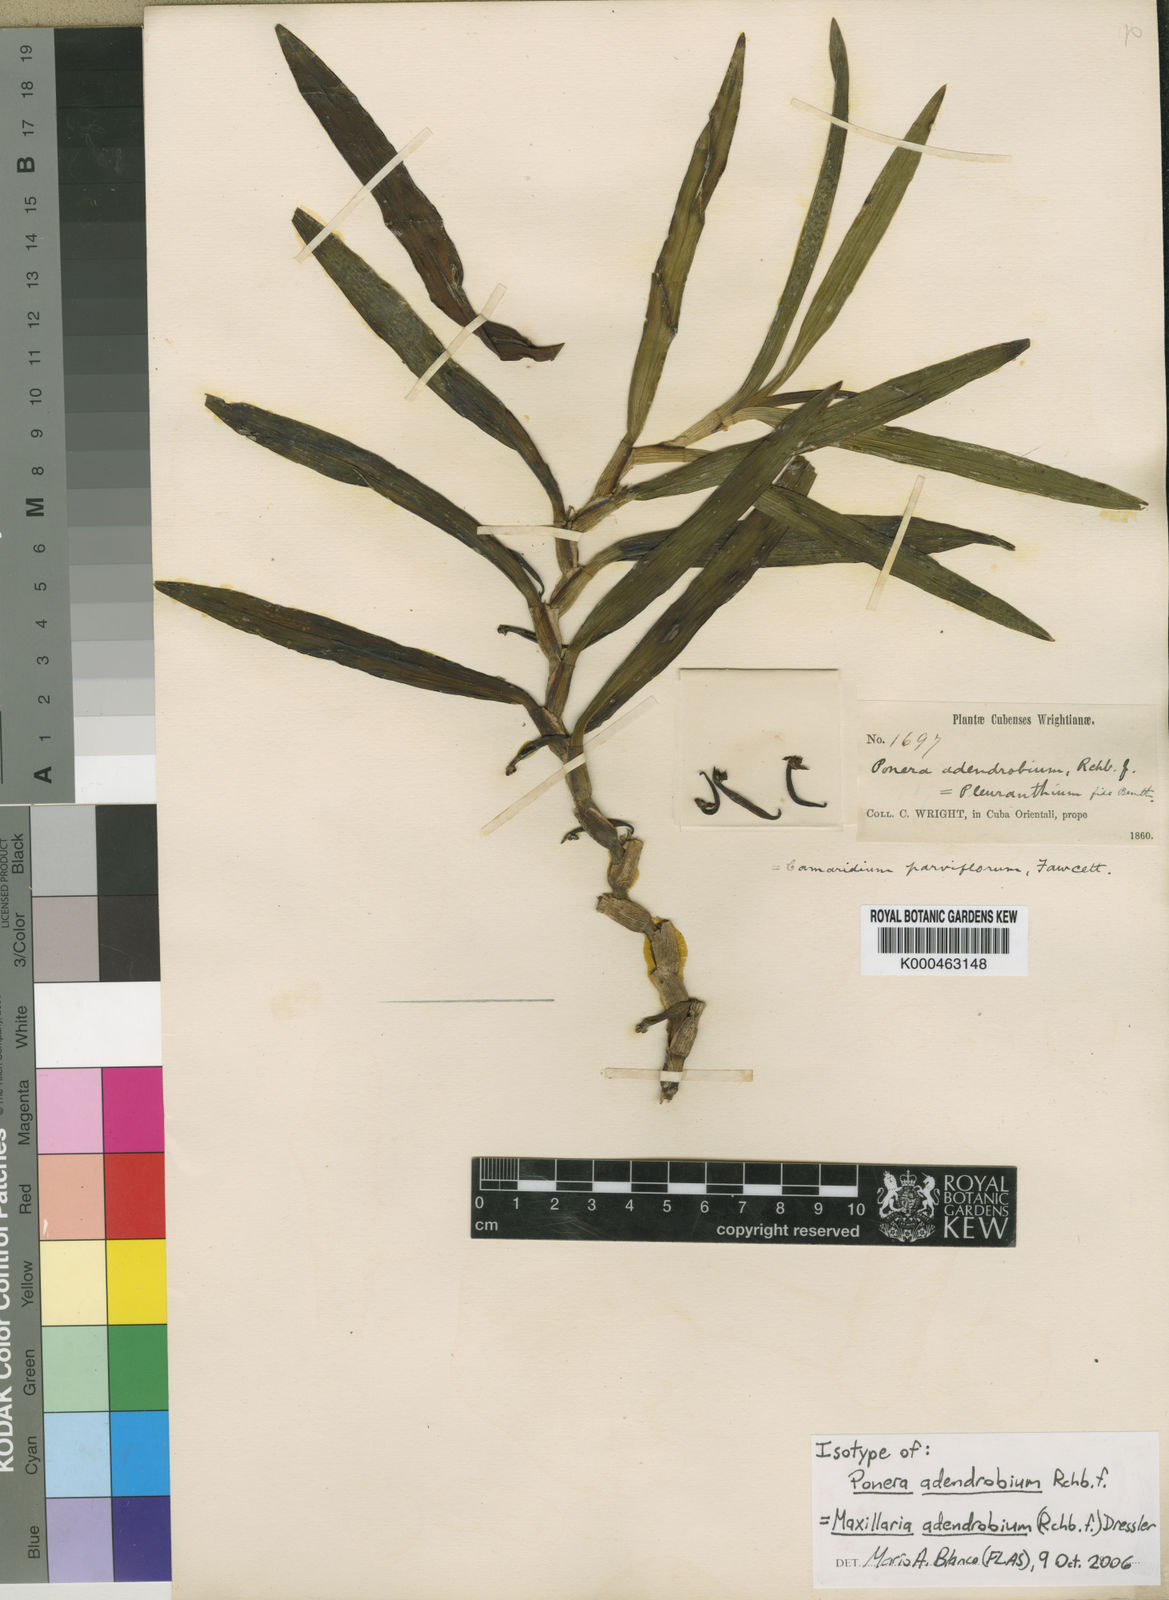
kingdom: Plantae
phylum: Tracheophyta
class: Liliopsida
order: Asparagales
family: Orchidaceae
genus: Maxillaria
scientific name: Maxillaria adendrobium
